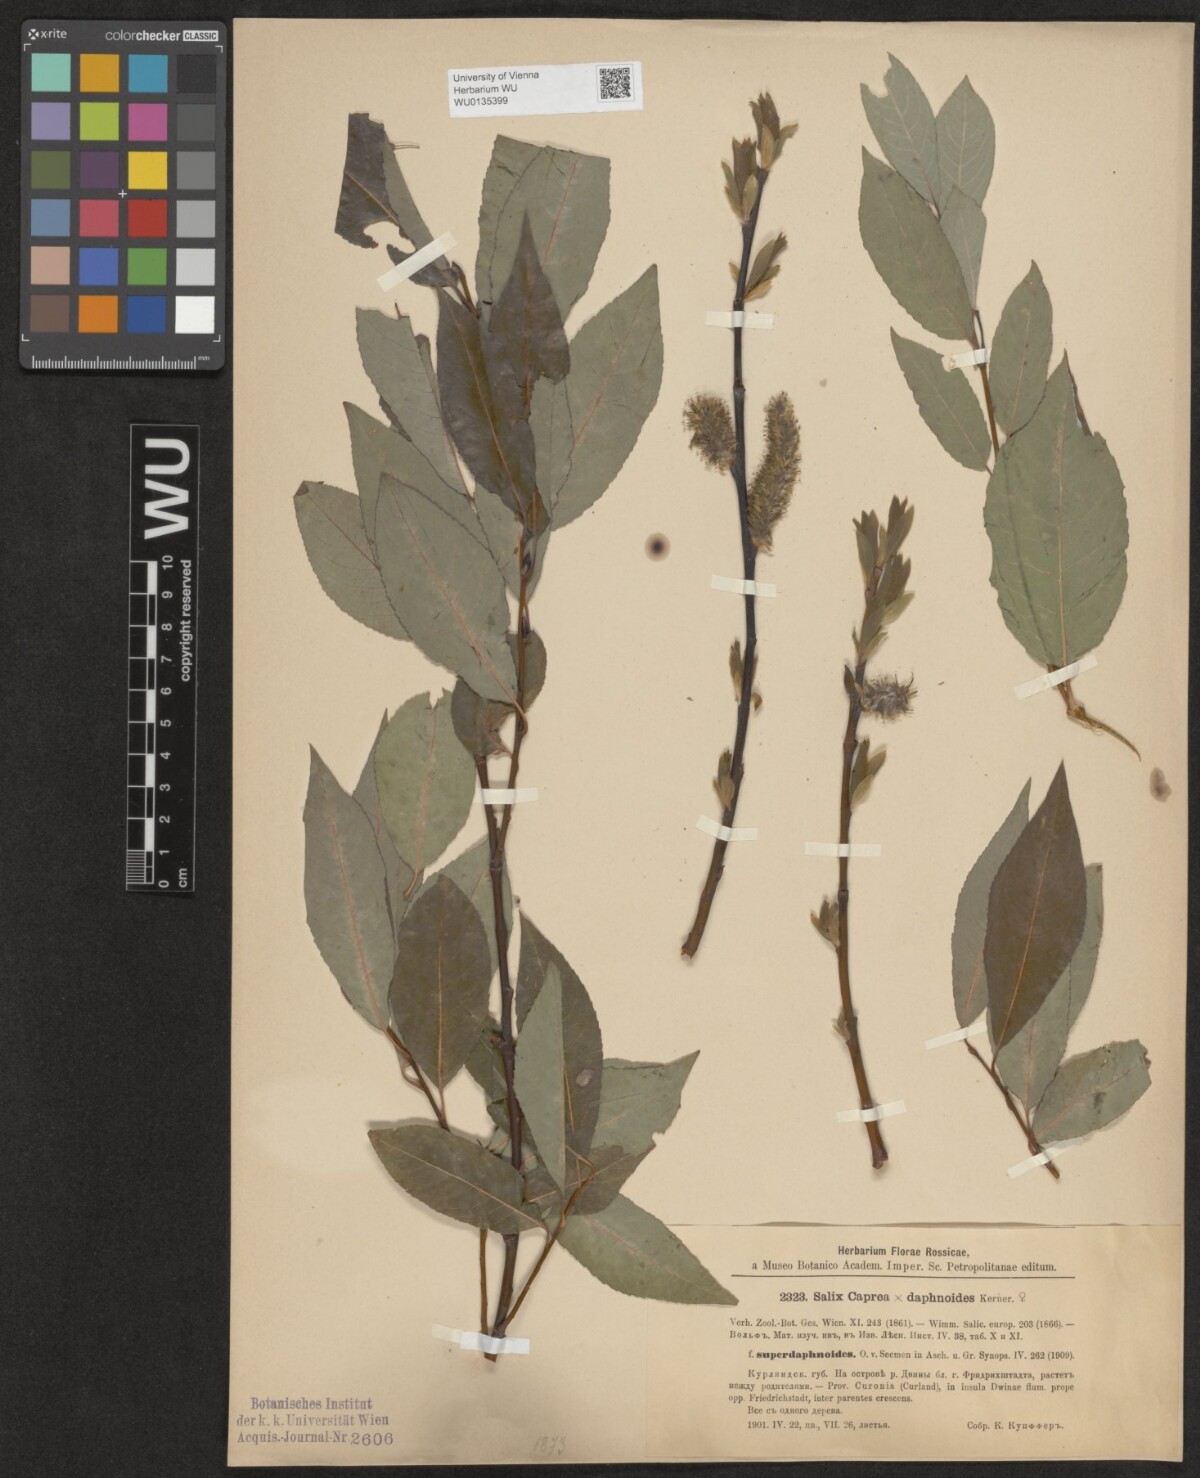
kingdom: Plantae
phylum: Tracheophyta
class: Magnoliopsida
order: Malpighiales
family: Salicaceae
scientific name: Salicaceae
